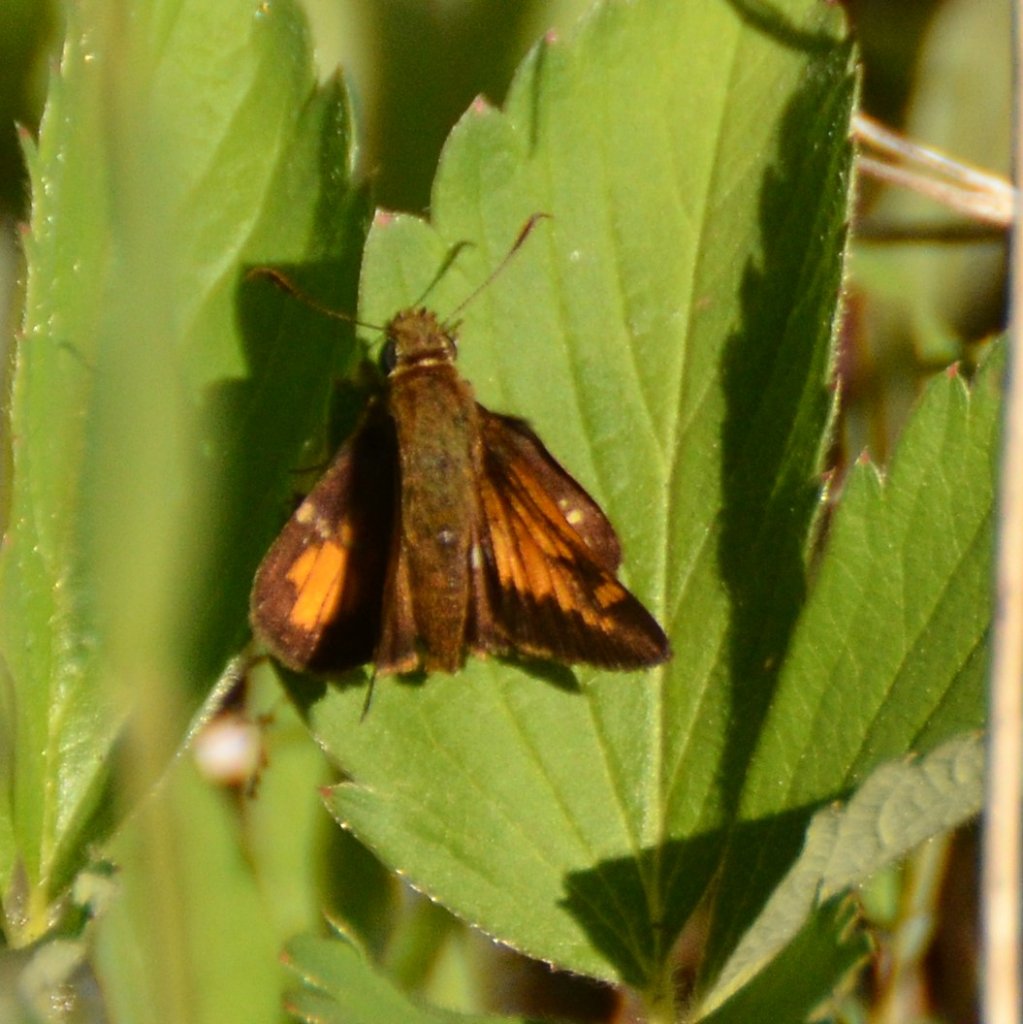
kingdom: Animalia
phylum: Arthropoda
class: Insecta
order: Lepidoptera
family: Hesperiidae
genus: Lon
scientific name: Lon hobomok
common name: Hobomok Skipper
